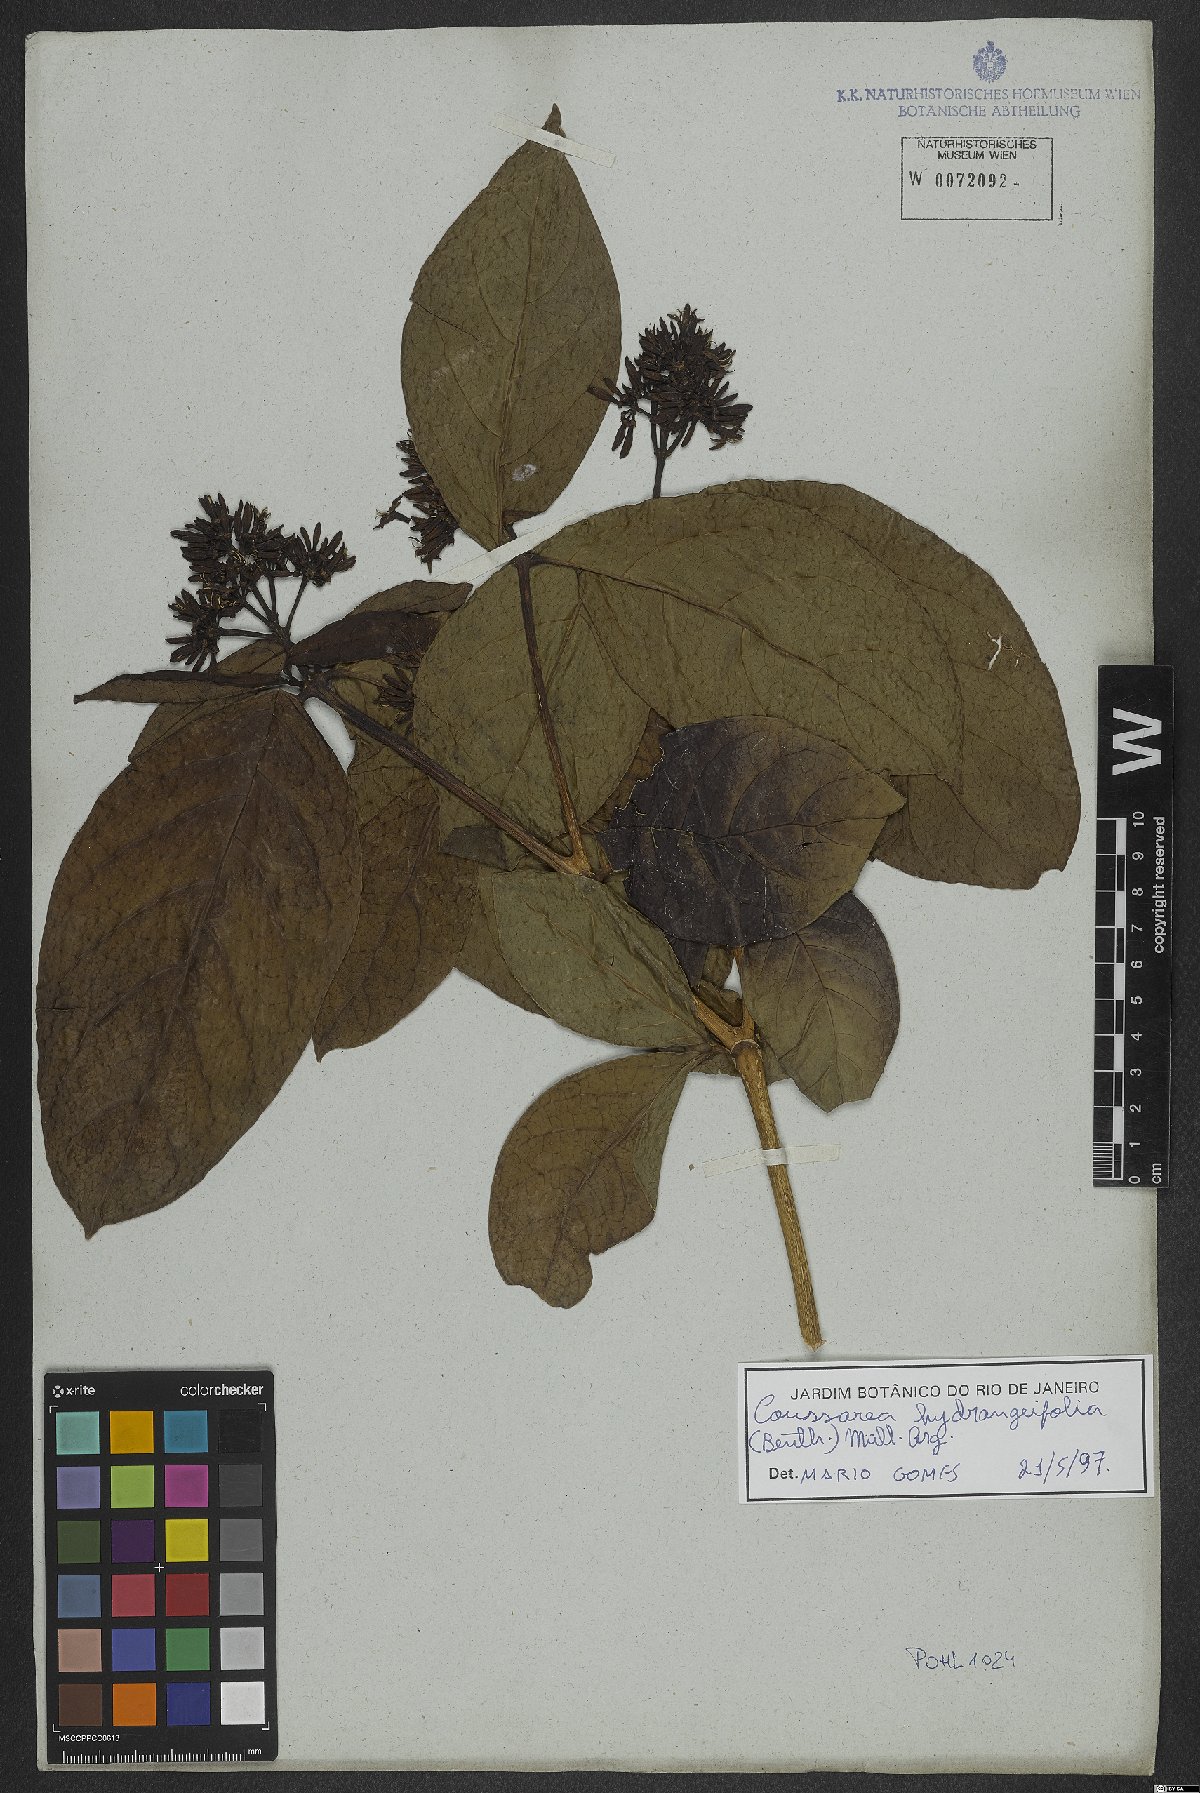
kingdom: Plantae
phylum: Tracheophyta
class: Magnoliopsida
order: Gentianales
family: Rubiaceae
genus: Coussarea
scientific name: Coussarea hydrangeifolia
